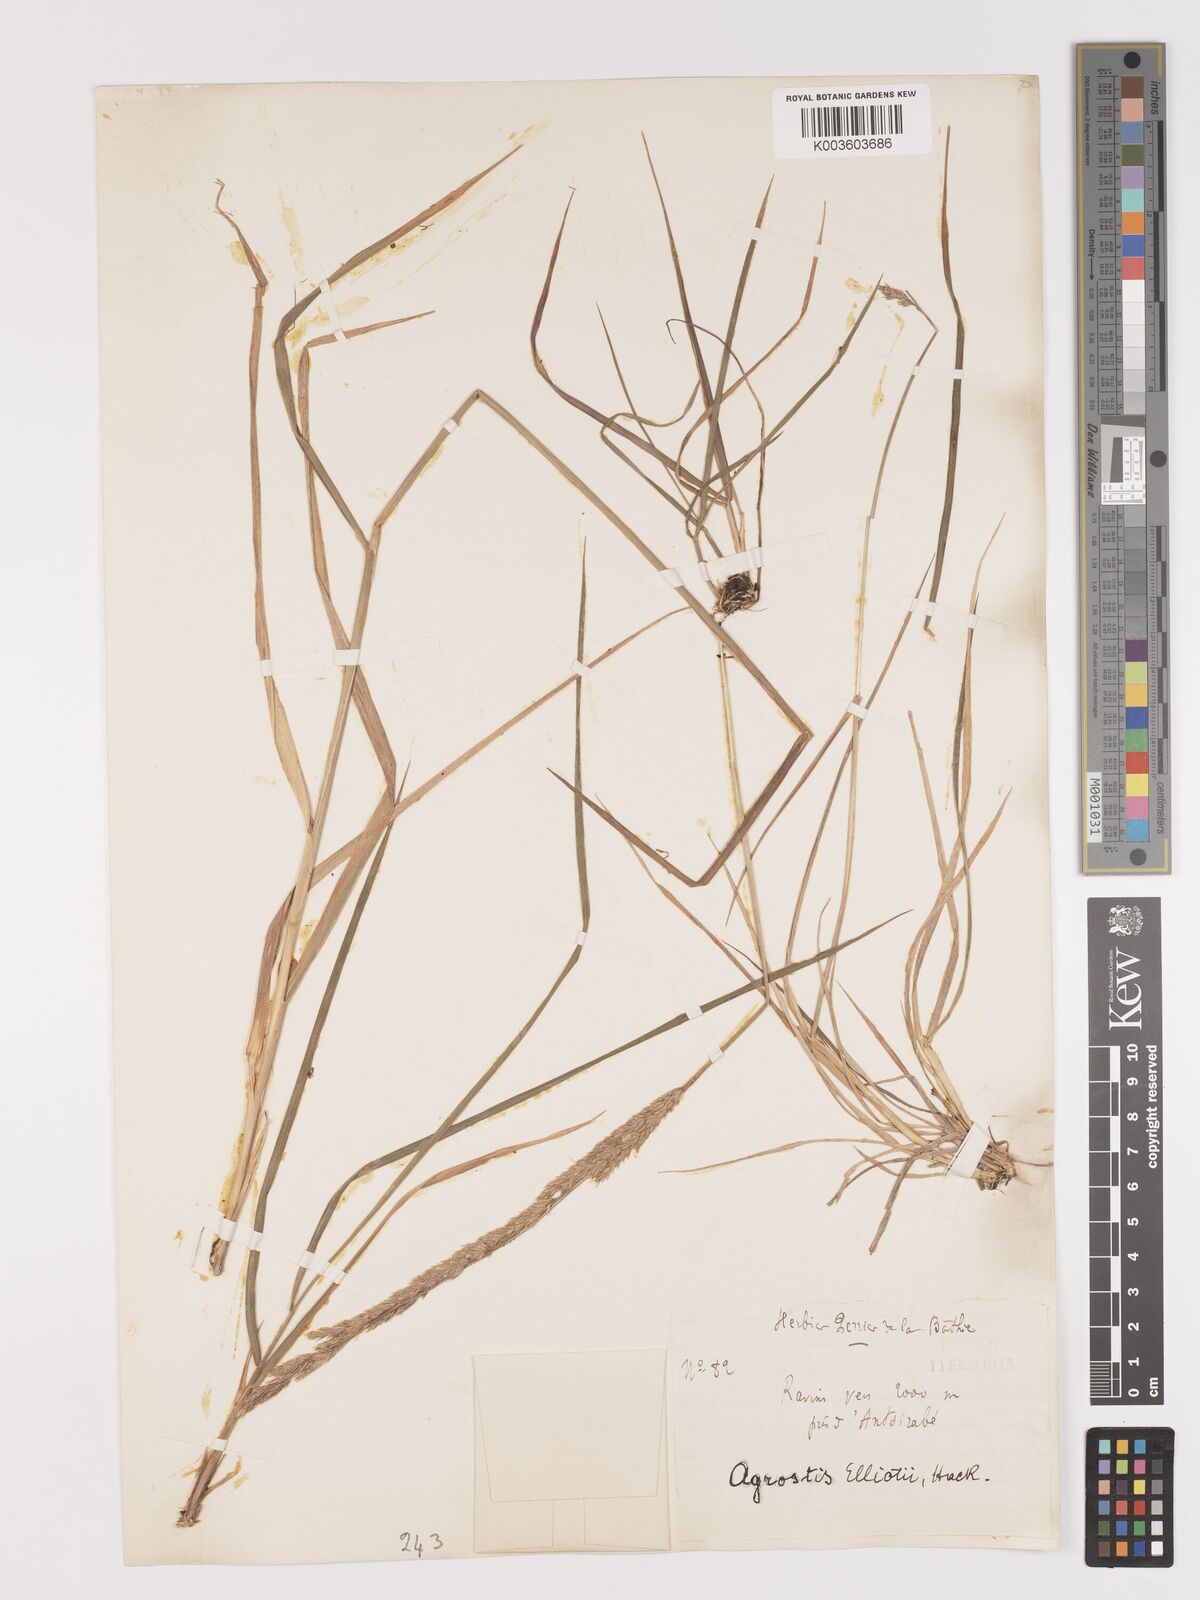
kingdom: Plantae
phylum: Tracheophyta
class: Liliopsida
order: Poales
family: Poaceae
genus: Agrostis
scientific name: Agrostis elliotii
